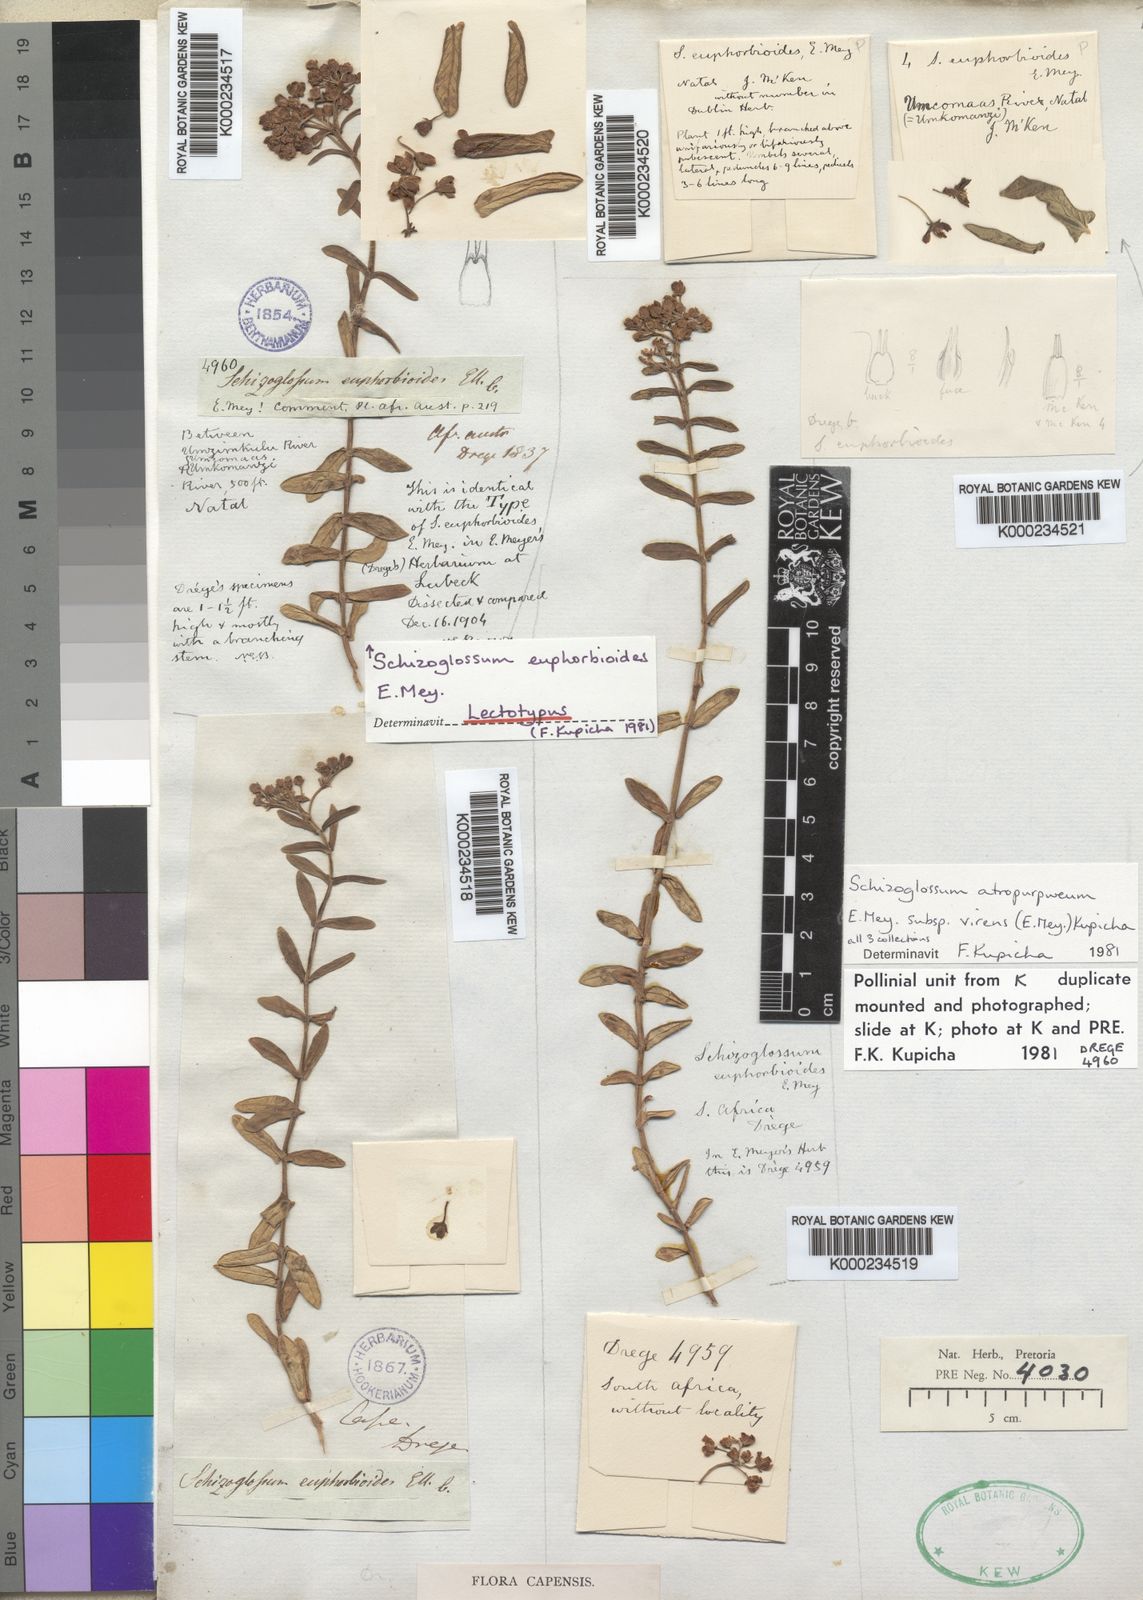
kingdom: Plantae
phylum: Tracheophyta
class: Magnoliopsida
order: Gentianales
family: Apocynaceae
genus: Schizoglossum
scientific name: Schizoglossum atropurpureum
